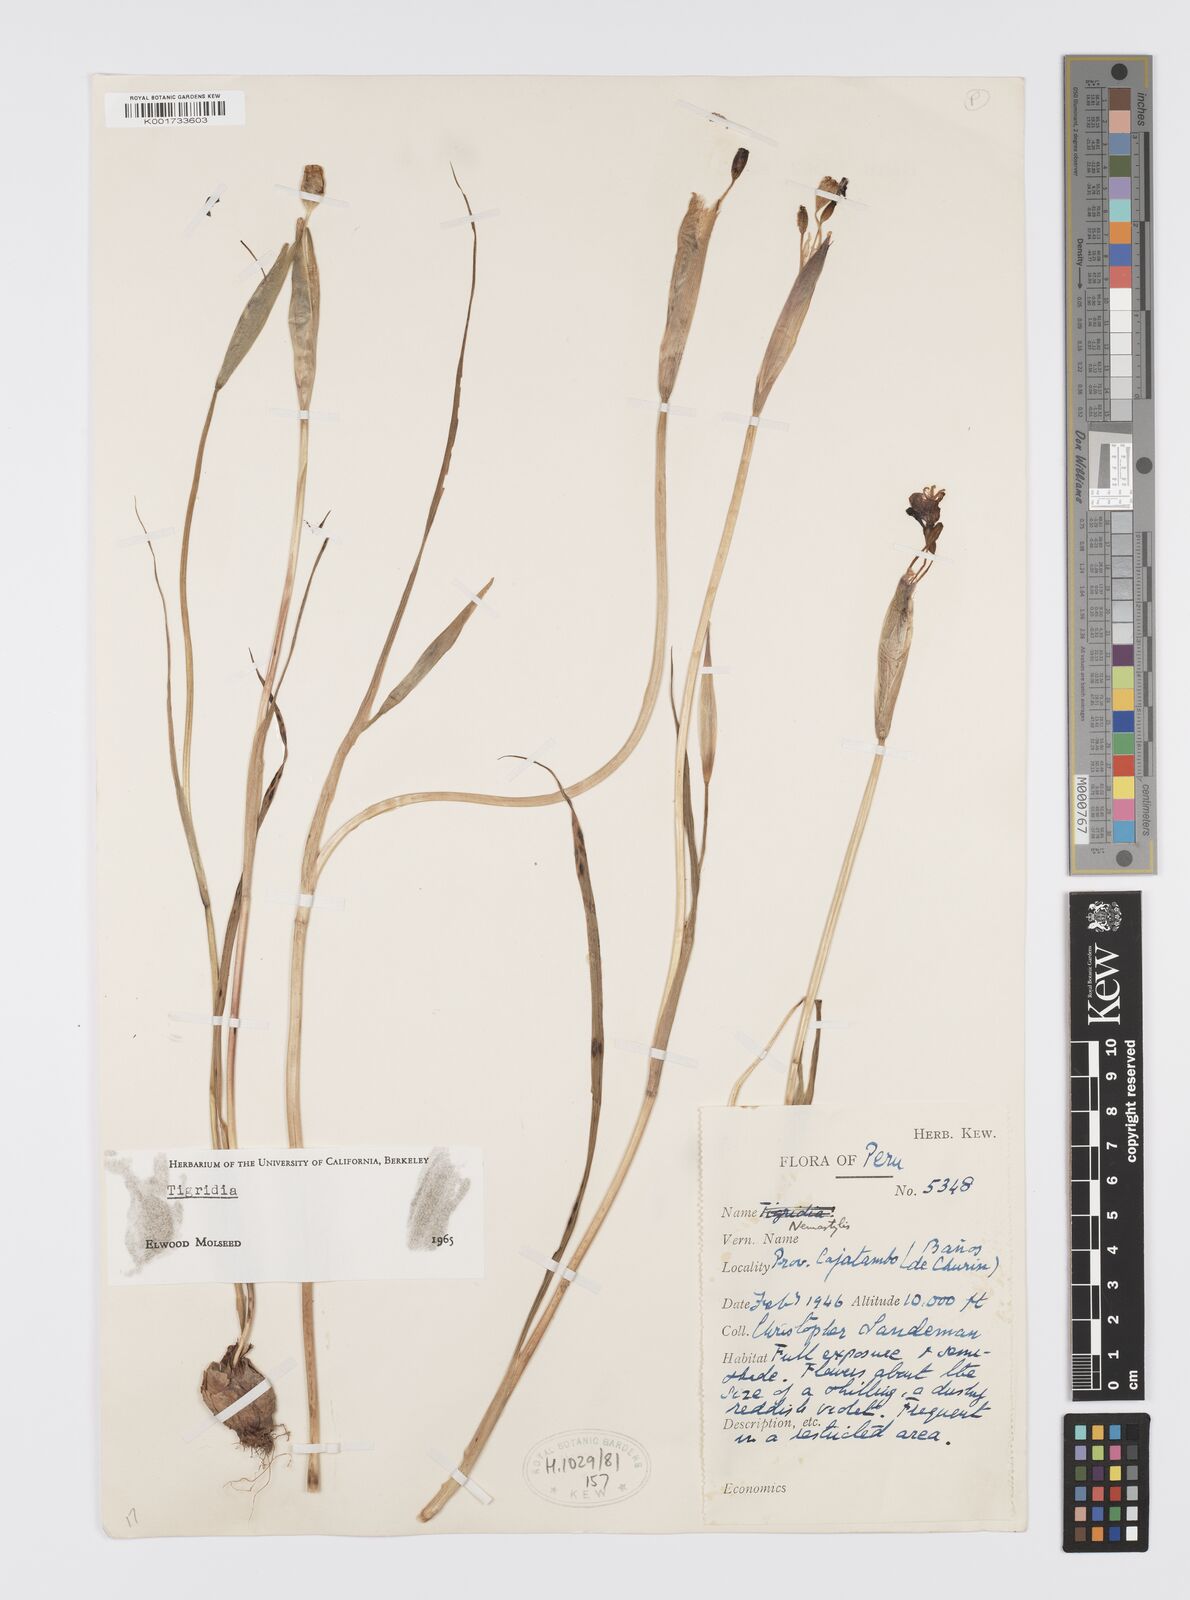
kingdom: Plantae
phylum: Tracheophyta
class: Liliopsida
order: Asparagales
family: Iridaceae
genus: Tigridia
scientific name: Tigridia
